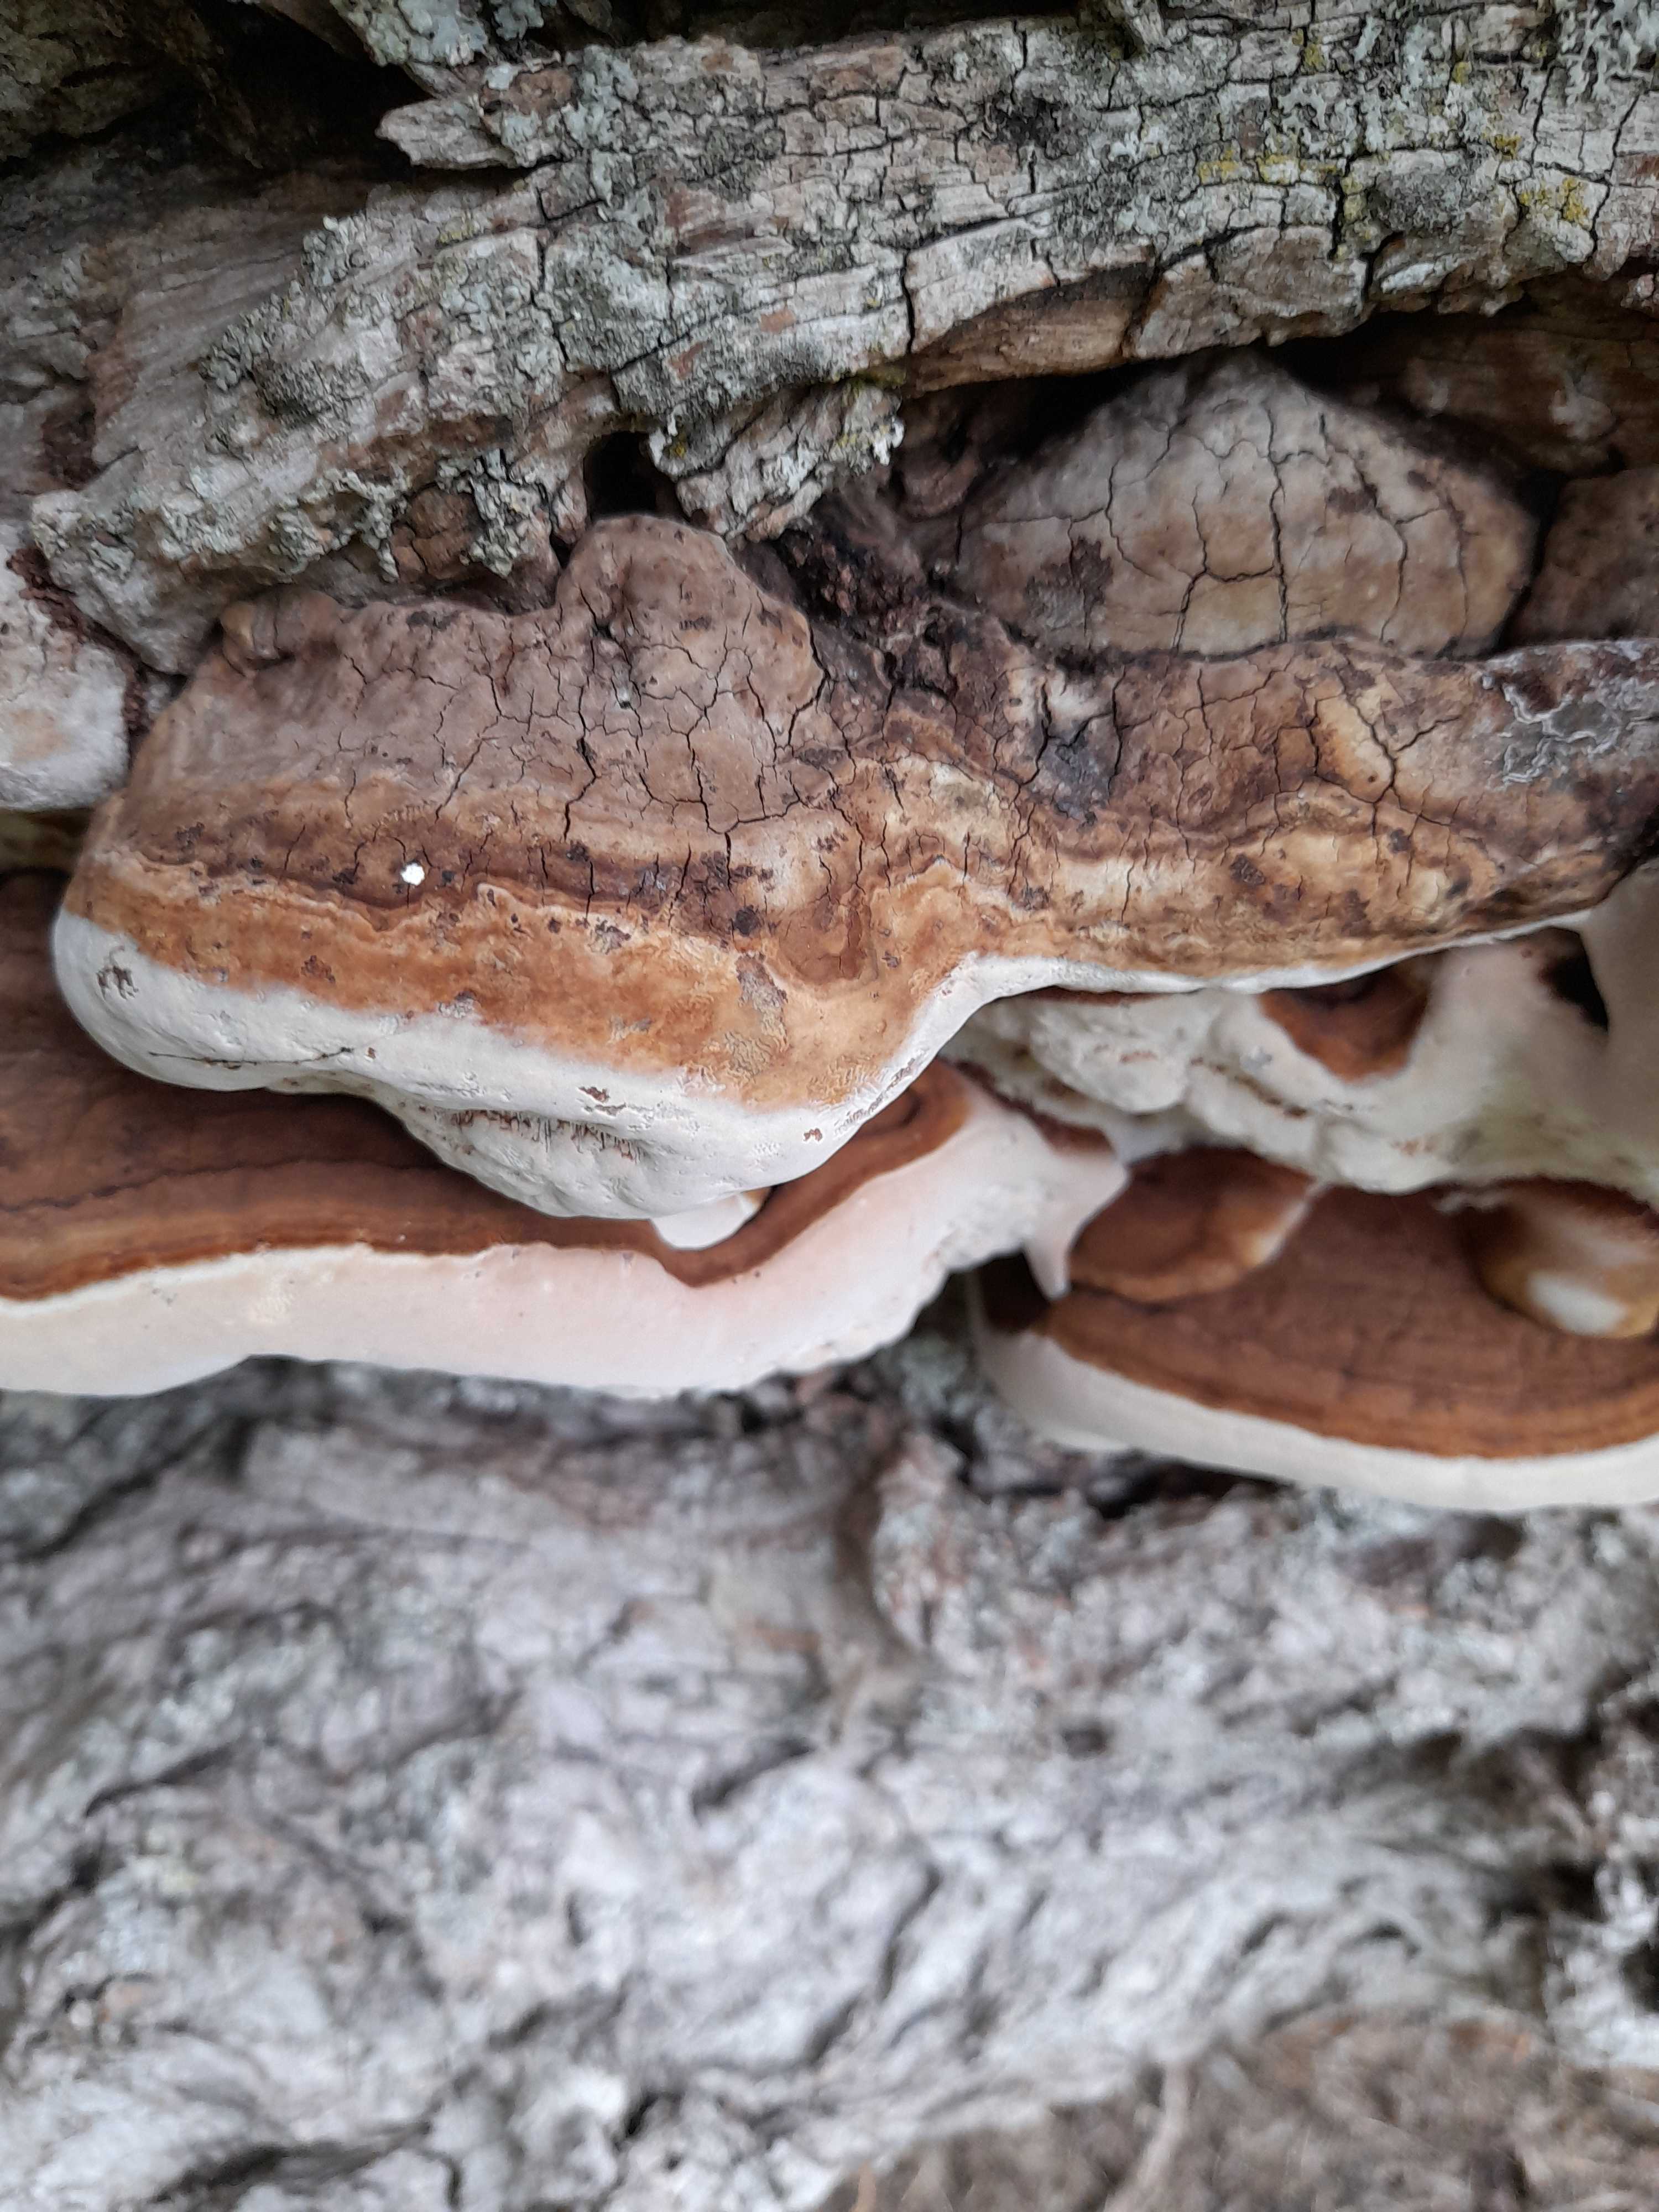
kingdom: Fungi
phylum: Basidiomycota
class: Agaricomycetes
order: Polyporales
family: Polyporaceae
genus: Ganoderma
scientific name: Ganoderma adspersum
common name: grov lakporesvamp
